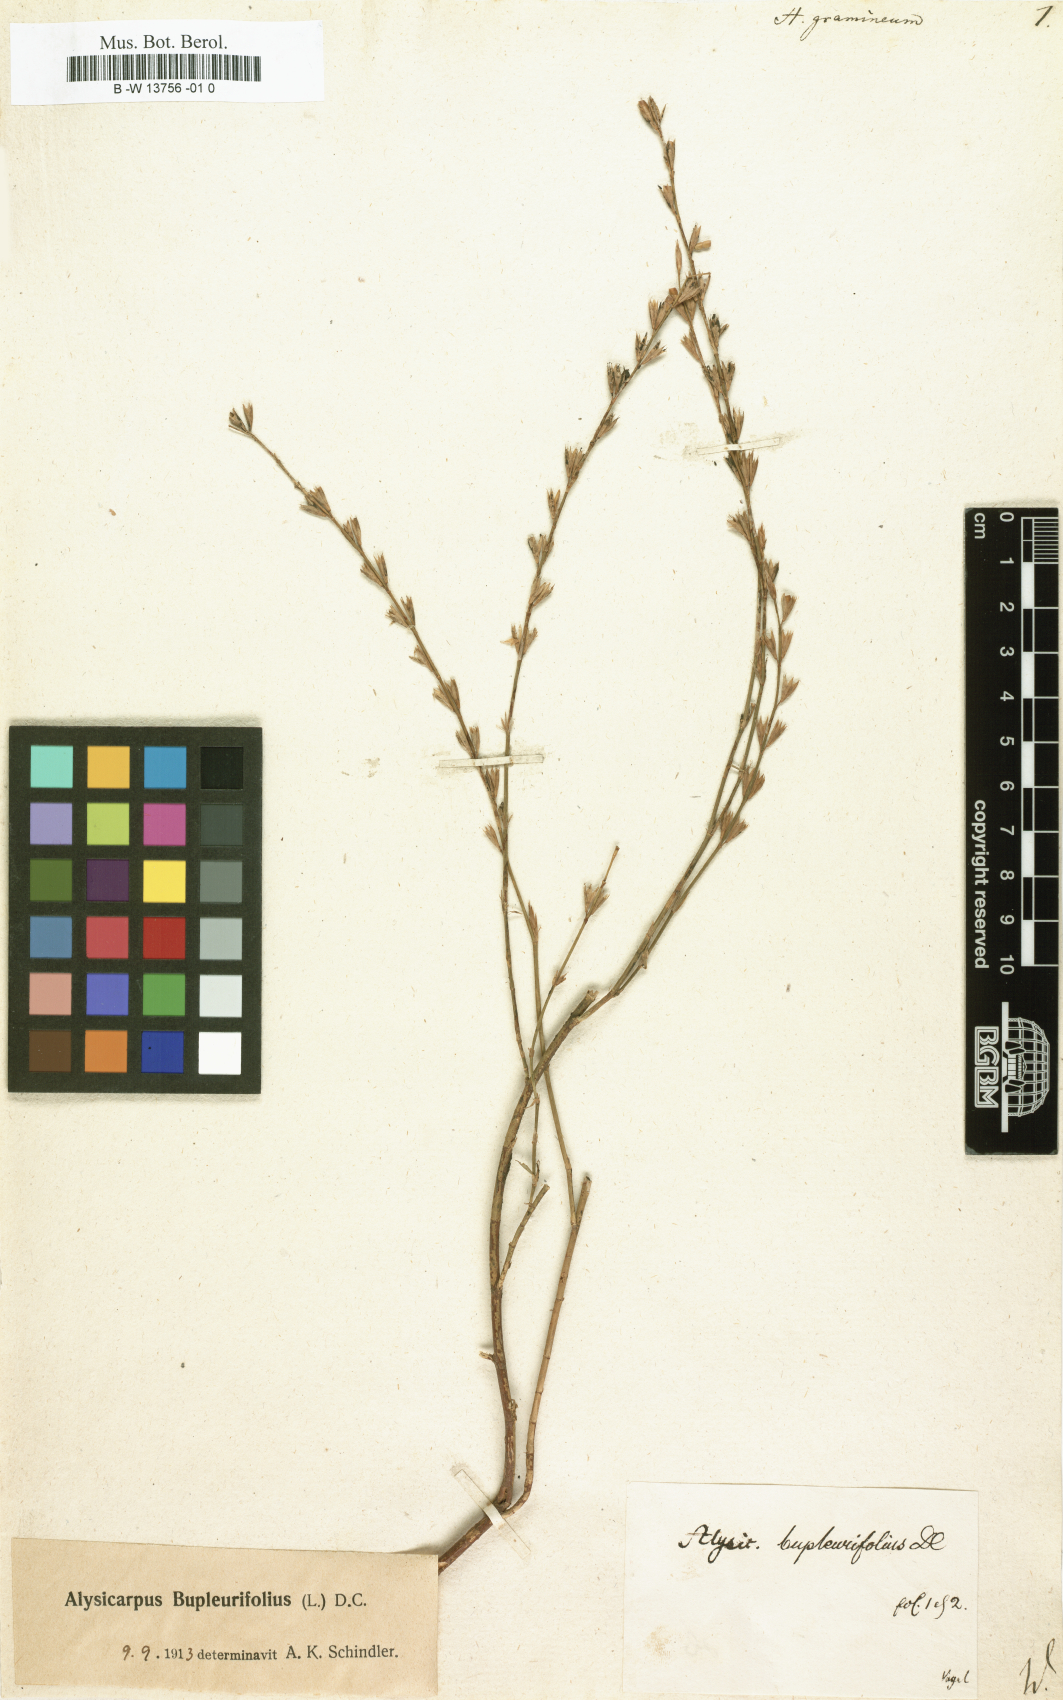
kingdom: Plantae
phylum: Tracheophyta
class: Magnoliopsida
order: Fabales
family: Fabaceae
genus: Alysicarpus
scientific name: Alysicarpus bupleurifolius
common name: Sweet alys
